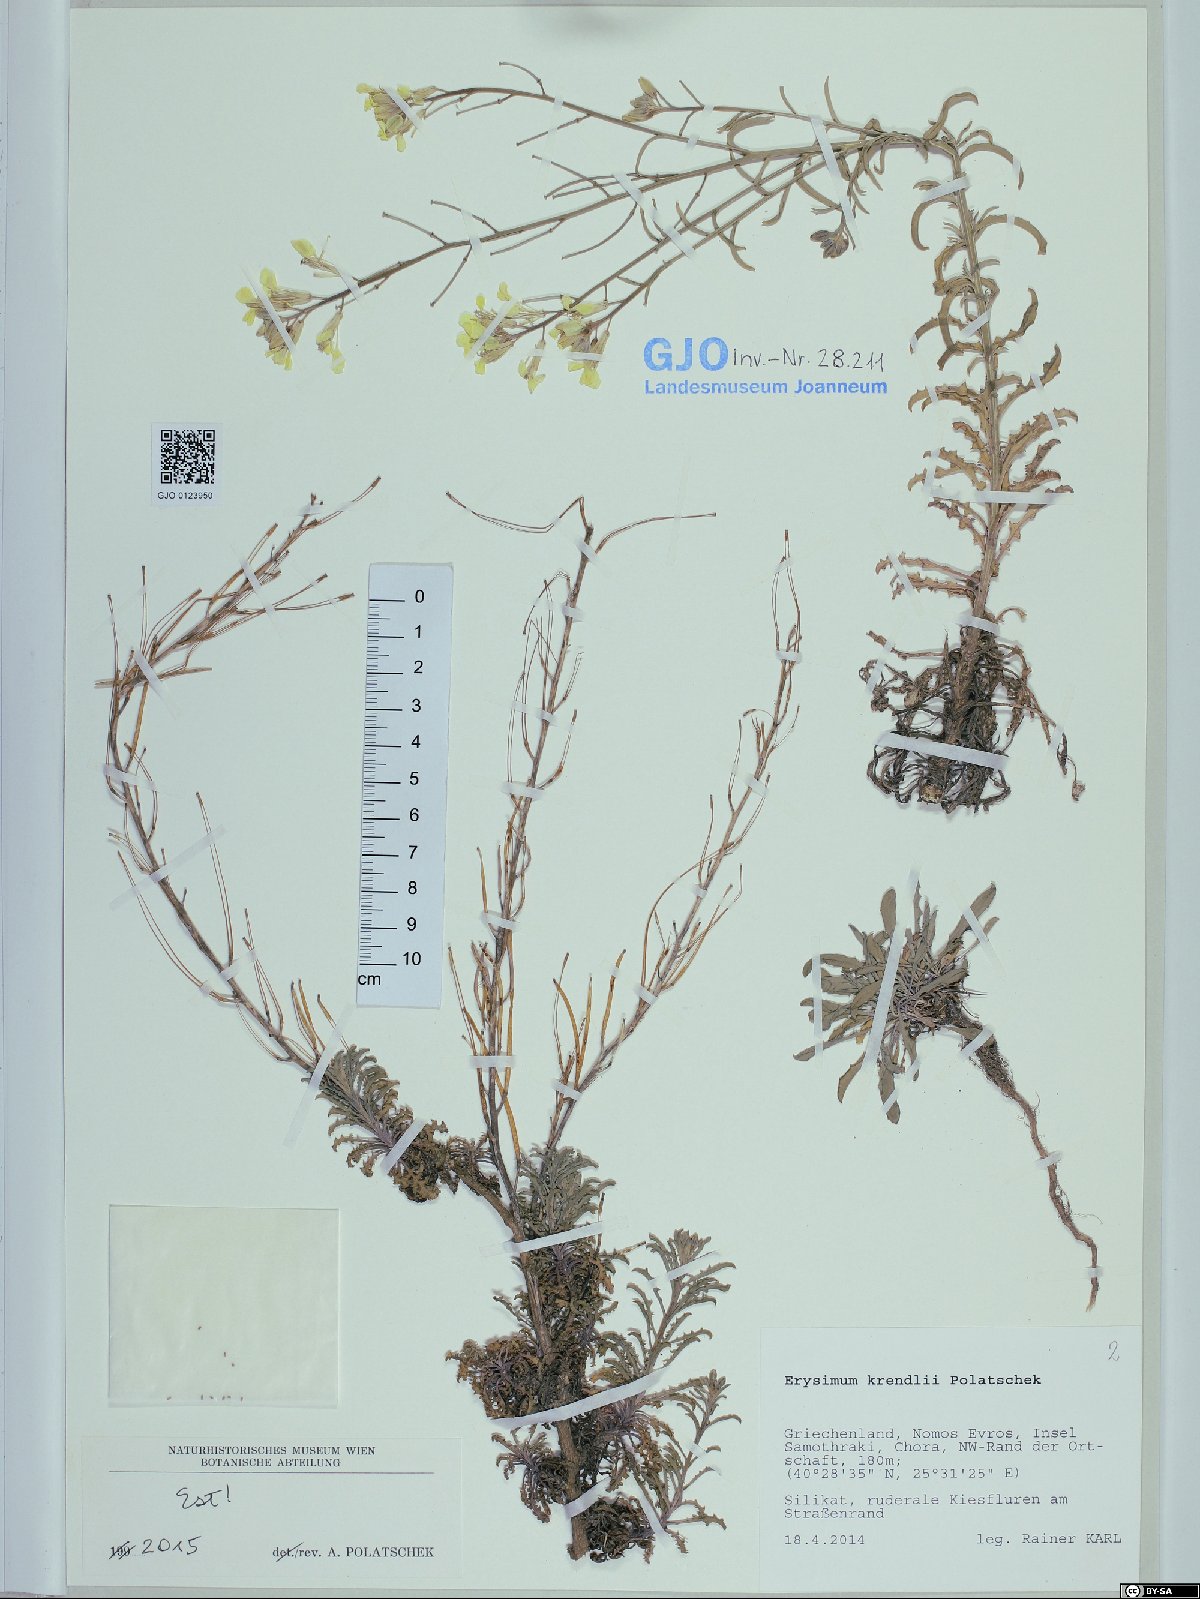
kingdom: Plantae
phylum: Tracheophyta
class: Magnoliopsida
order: Brassicales
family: Brassicaceae
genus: Erysimum
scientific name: Erysimum krendlii
